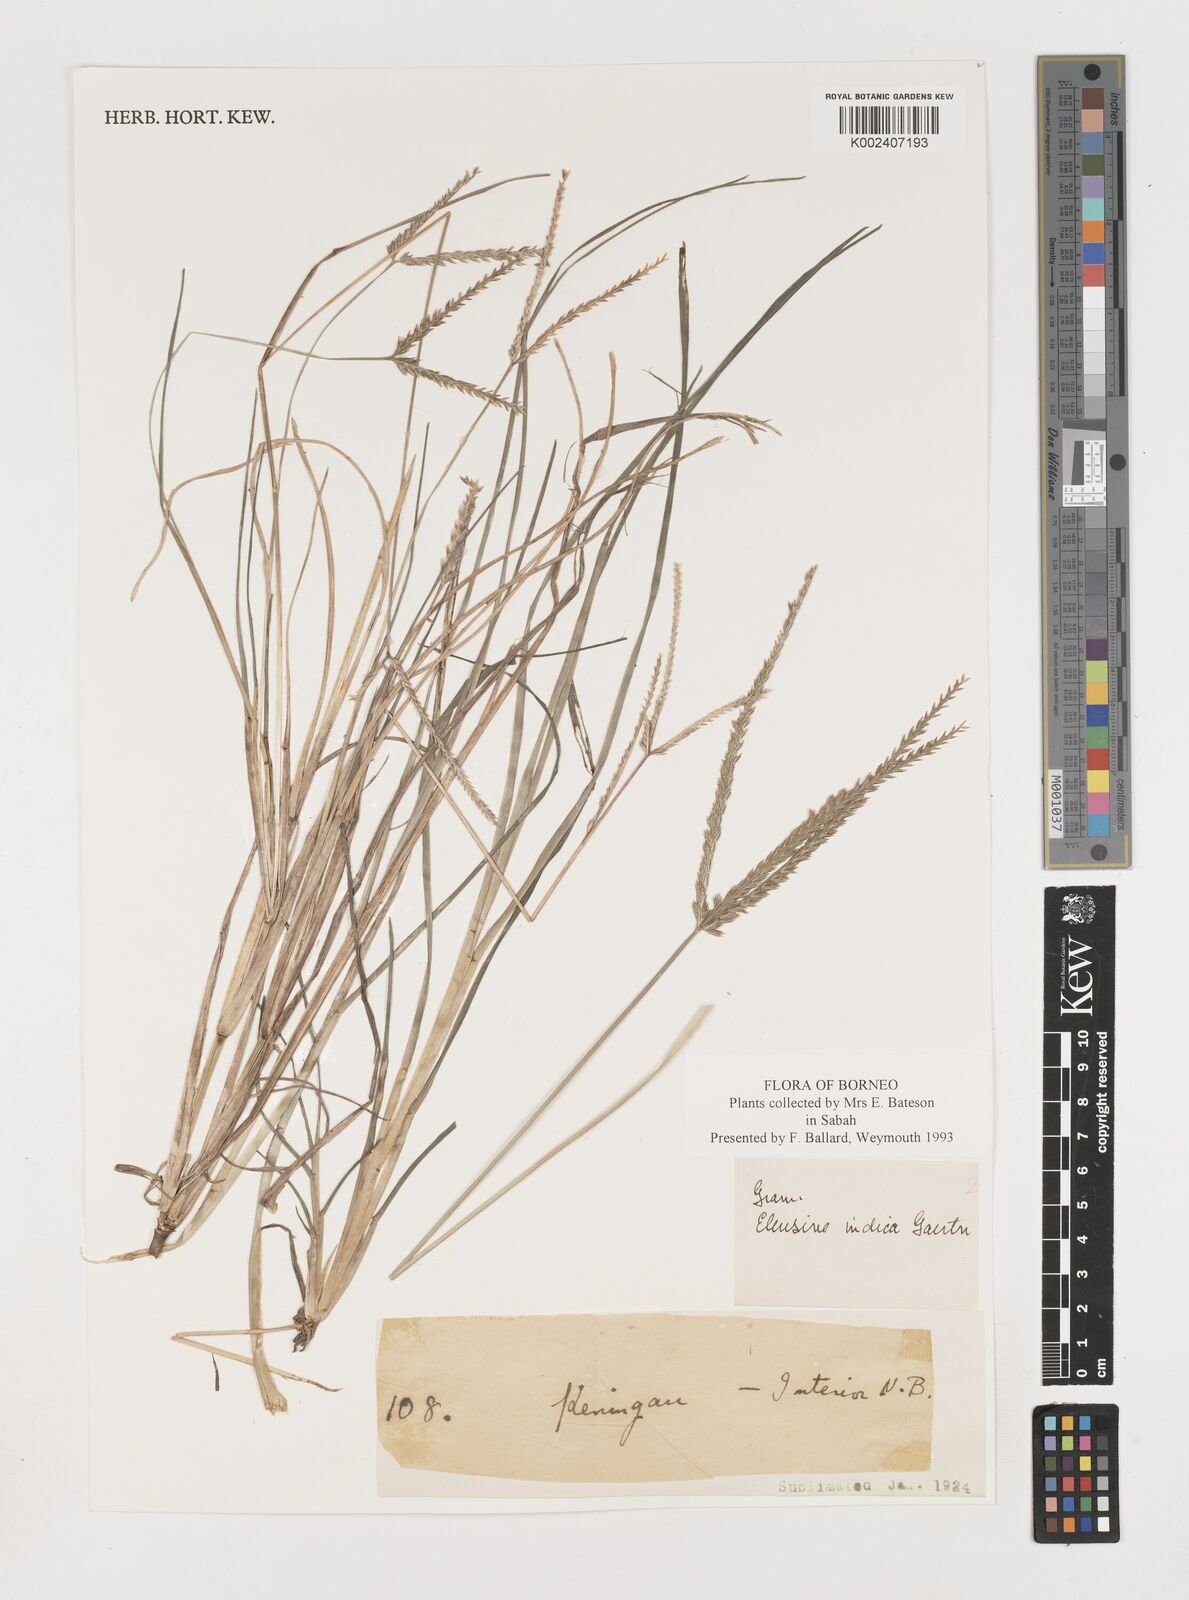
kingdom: Plantae
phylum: Tracheophyta
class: Liliopsida
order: Poales
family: Poaceae
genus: Eleusine
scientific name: Eleusine indica
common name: Yard-grass
